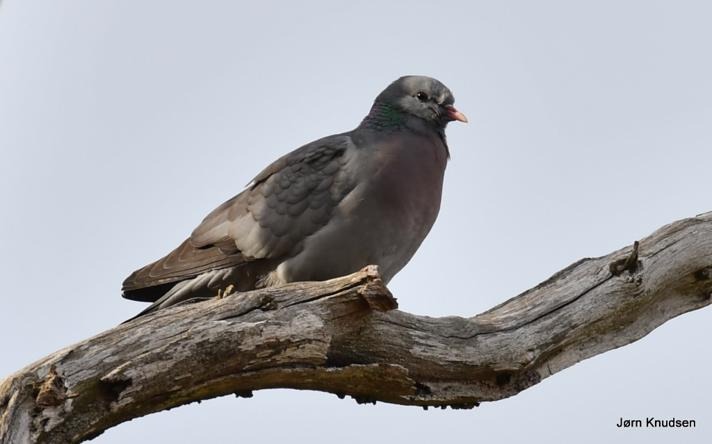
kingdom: Animalia
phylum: Chordata
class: Aves
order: Columbiformes
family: Columbidae
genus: Columba
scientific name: Columba oenas
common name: Huldue
